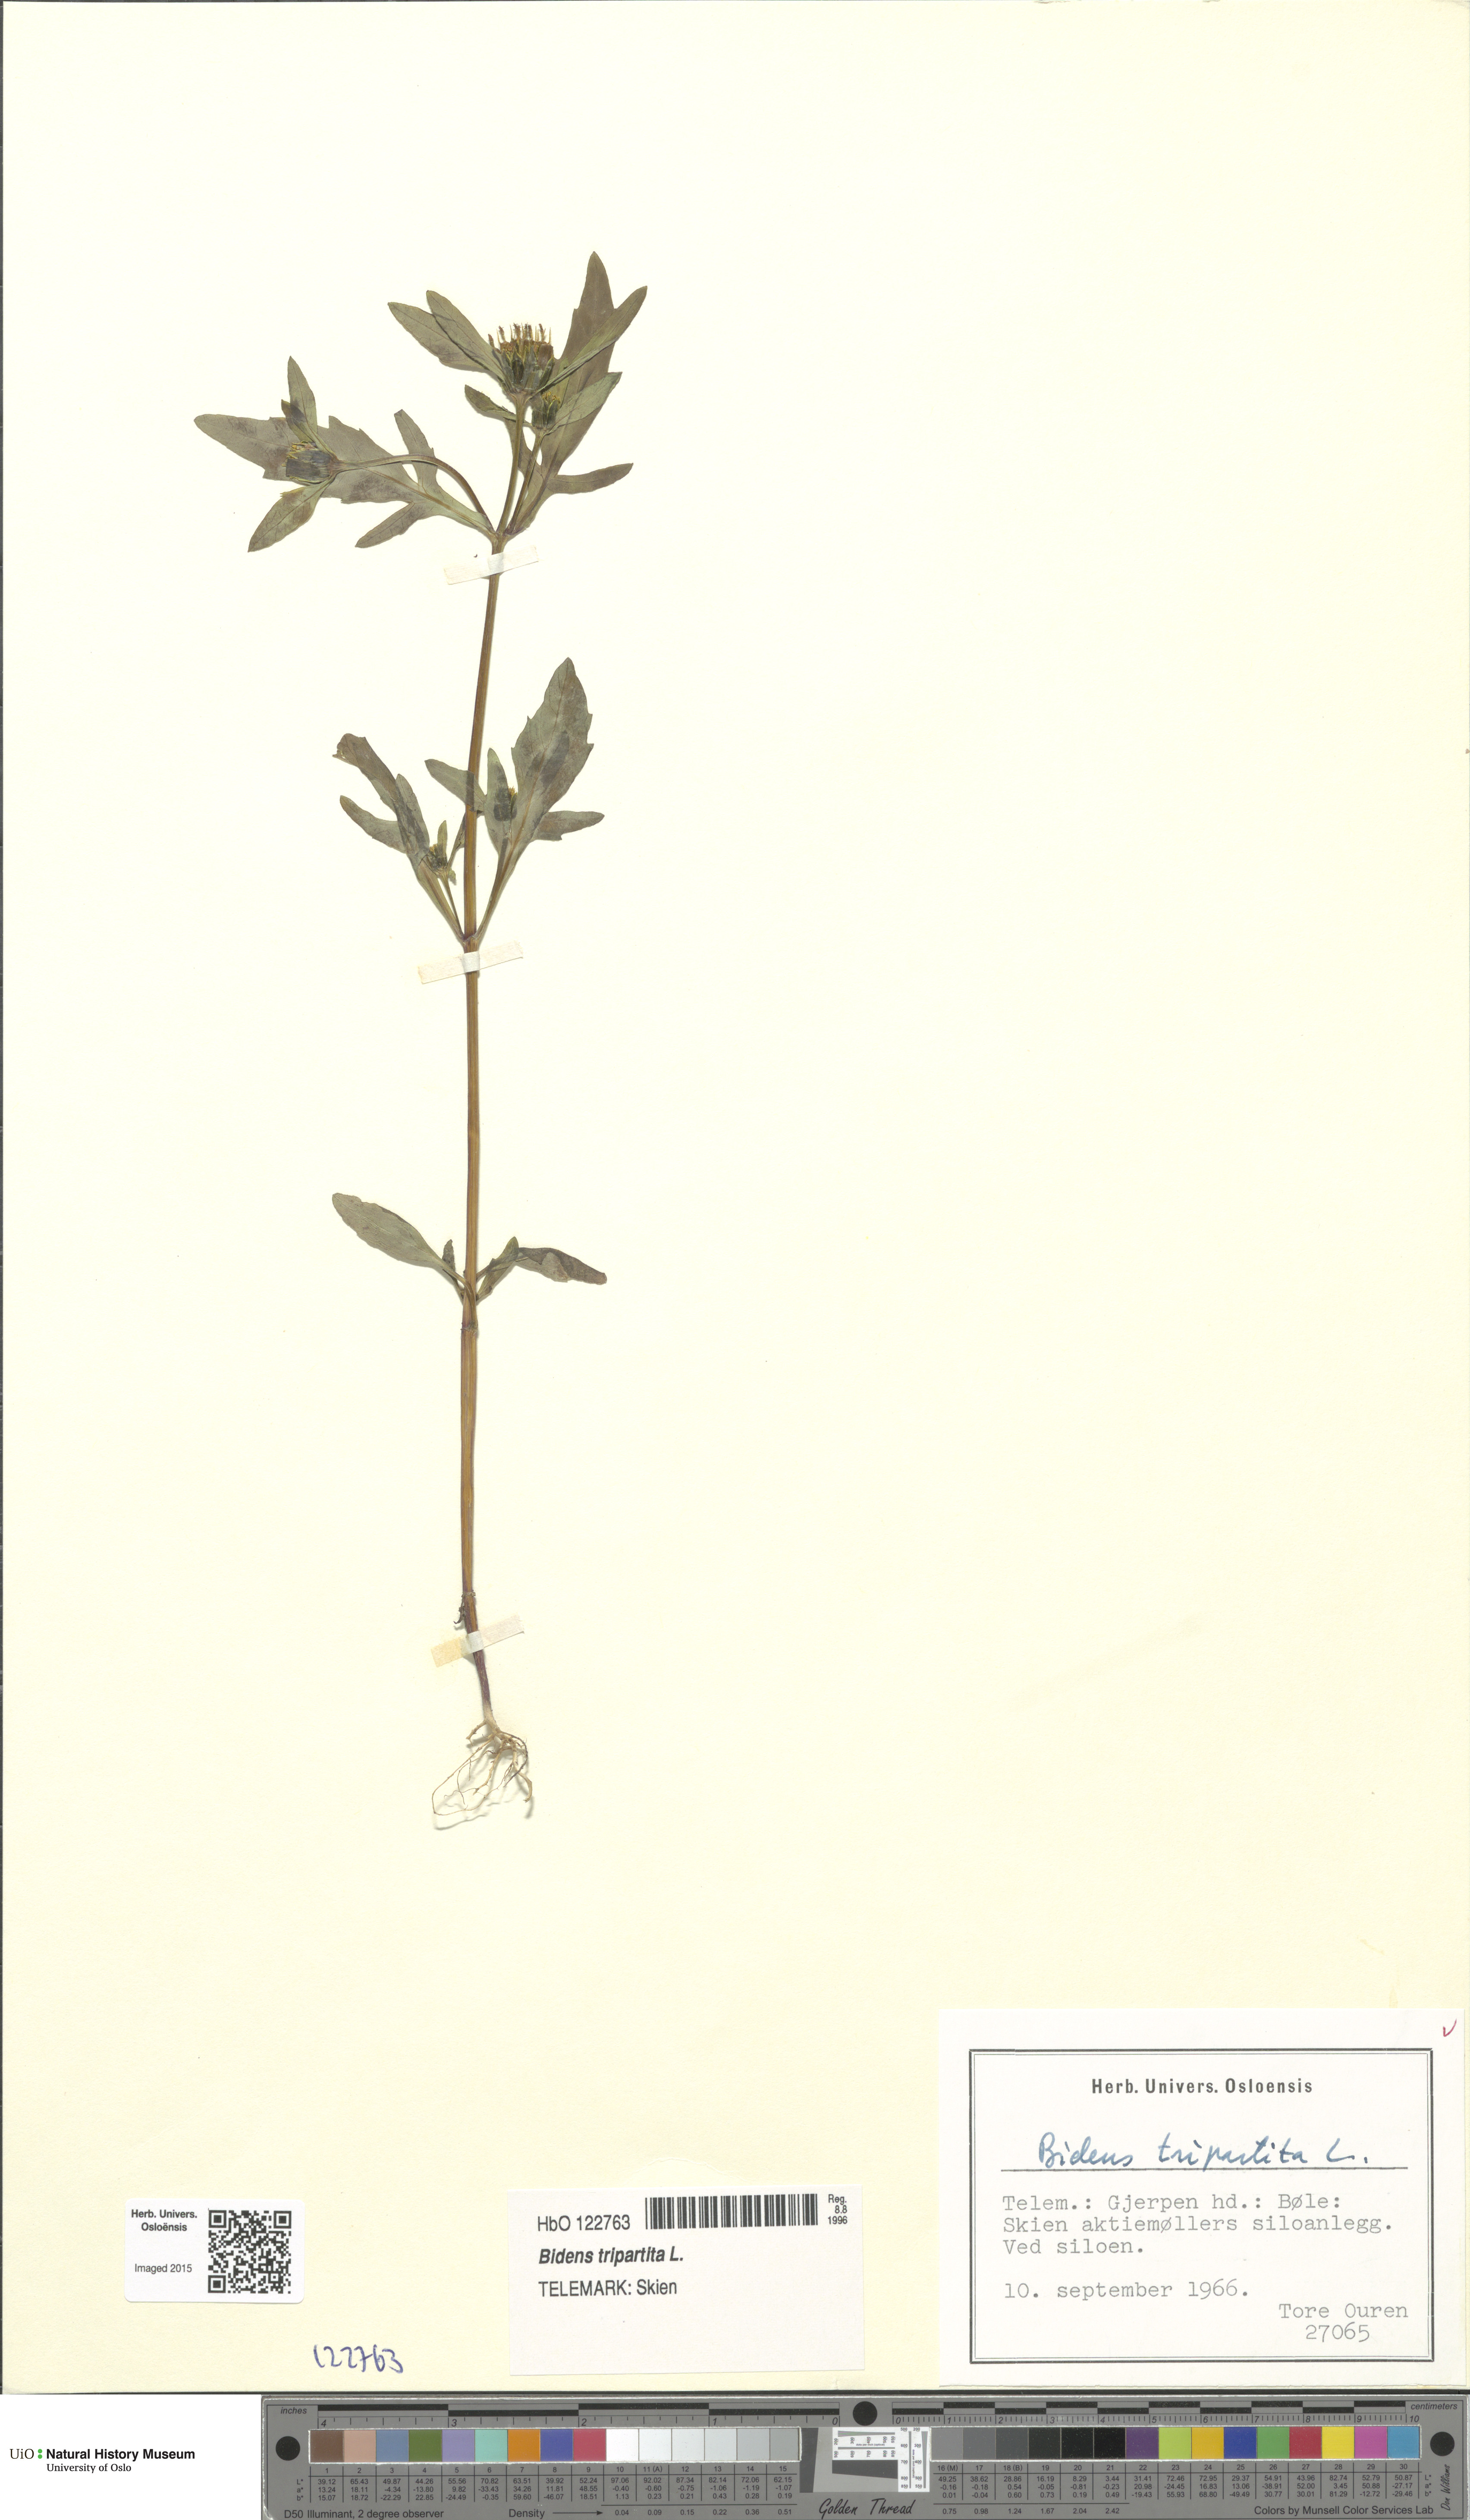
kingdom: Plantae
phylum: Tracheophyta
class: Magnoliopsida
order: Asterales
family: Asteraceae
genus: Bidens
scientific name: Bidens tripartita
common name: Trifid bur-marigold
